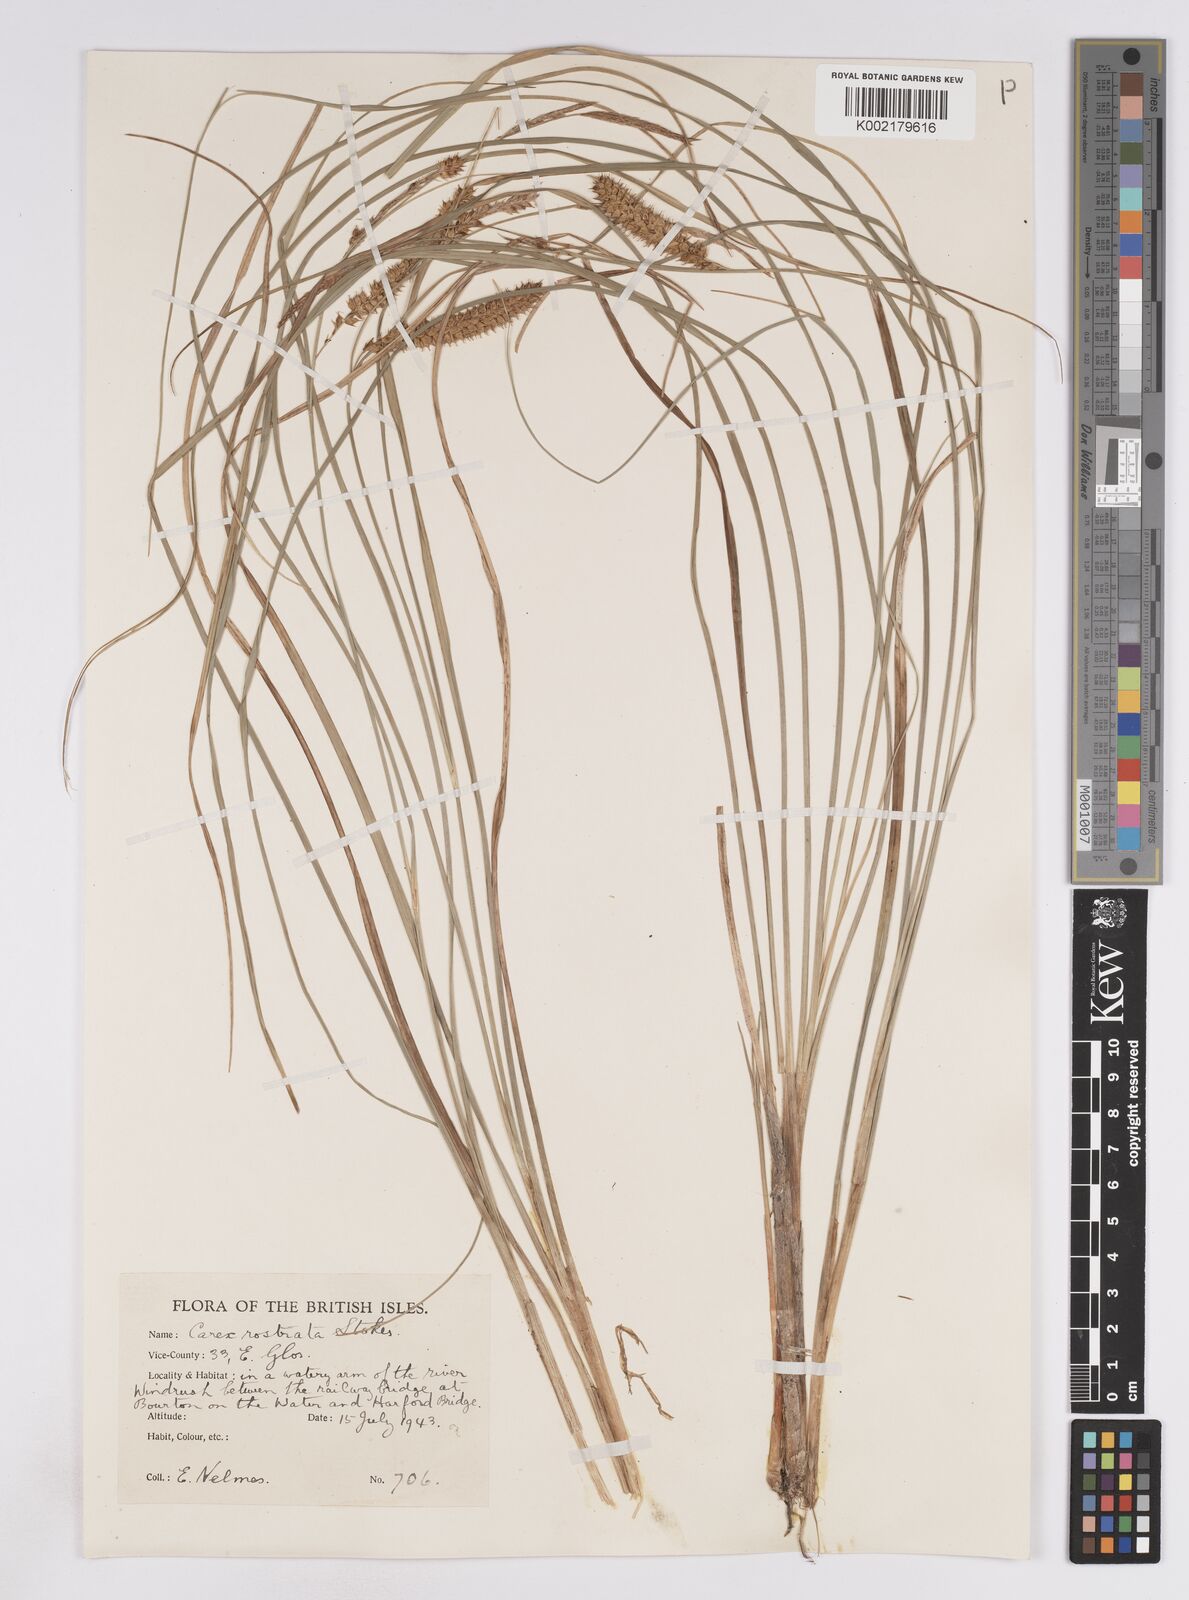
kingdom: Plantae
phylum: Tracheophyta
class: Liliopsida
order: Poales
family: Cyperaceae
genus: Carex
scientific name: Carex rostrata
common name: Bottle sedge
